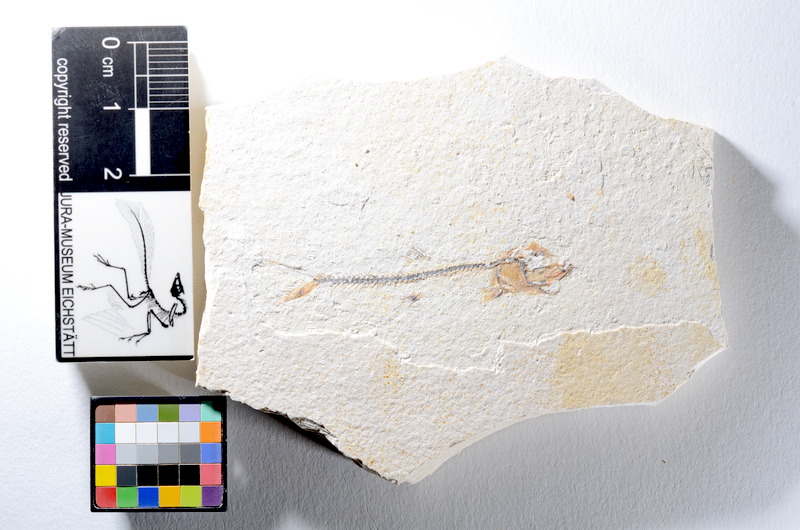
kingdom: Animalia
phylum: Chordata
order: Salmoniformes
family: Orthogonikleithridae
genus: Orthogonikleithrus
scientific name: Orthogonikleithrus hoelli
